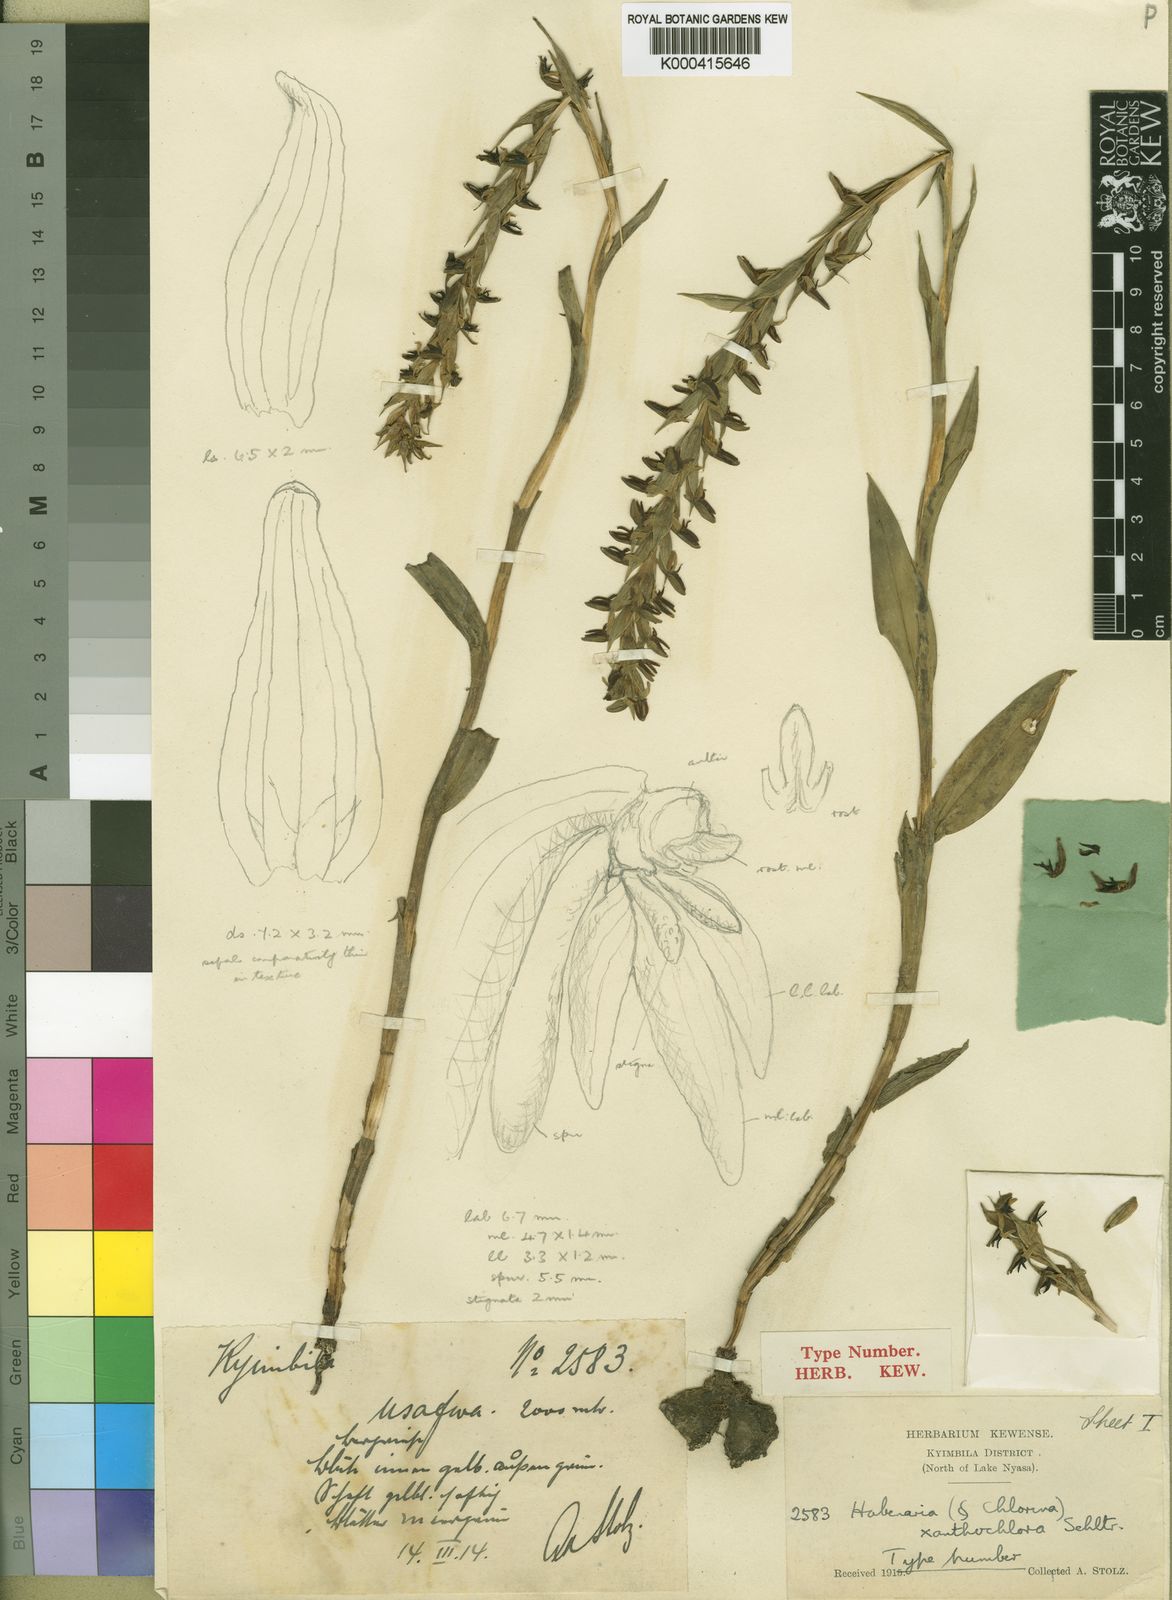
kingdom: Plantae
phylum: Tracheophyta
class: Liliopsida
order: Asparagales
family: Orchidaceae
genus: Habenaria
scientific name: Habenaria xanthochlora
